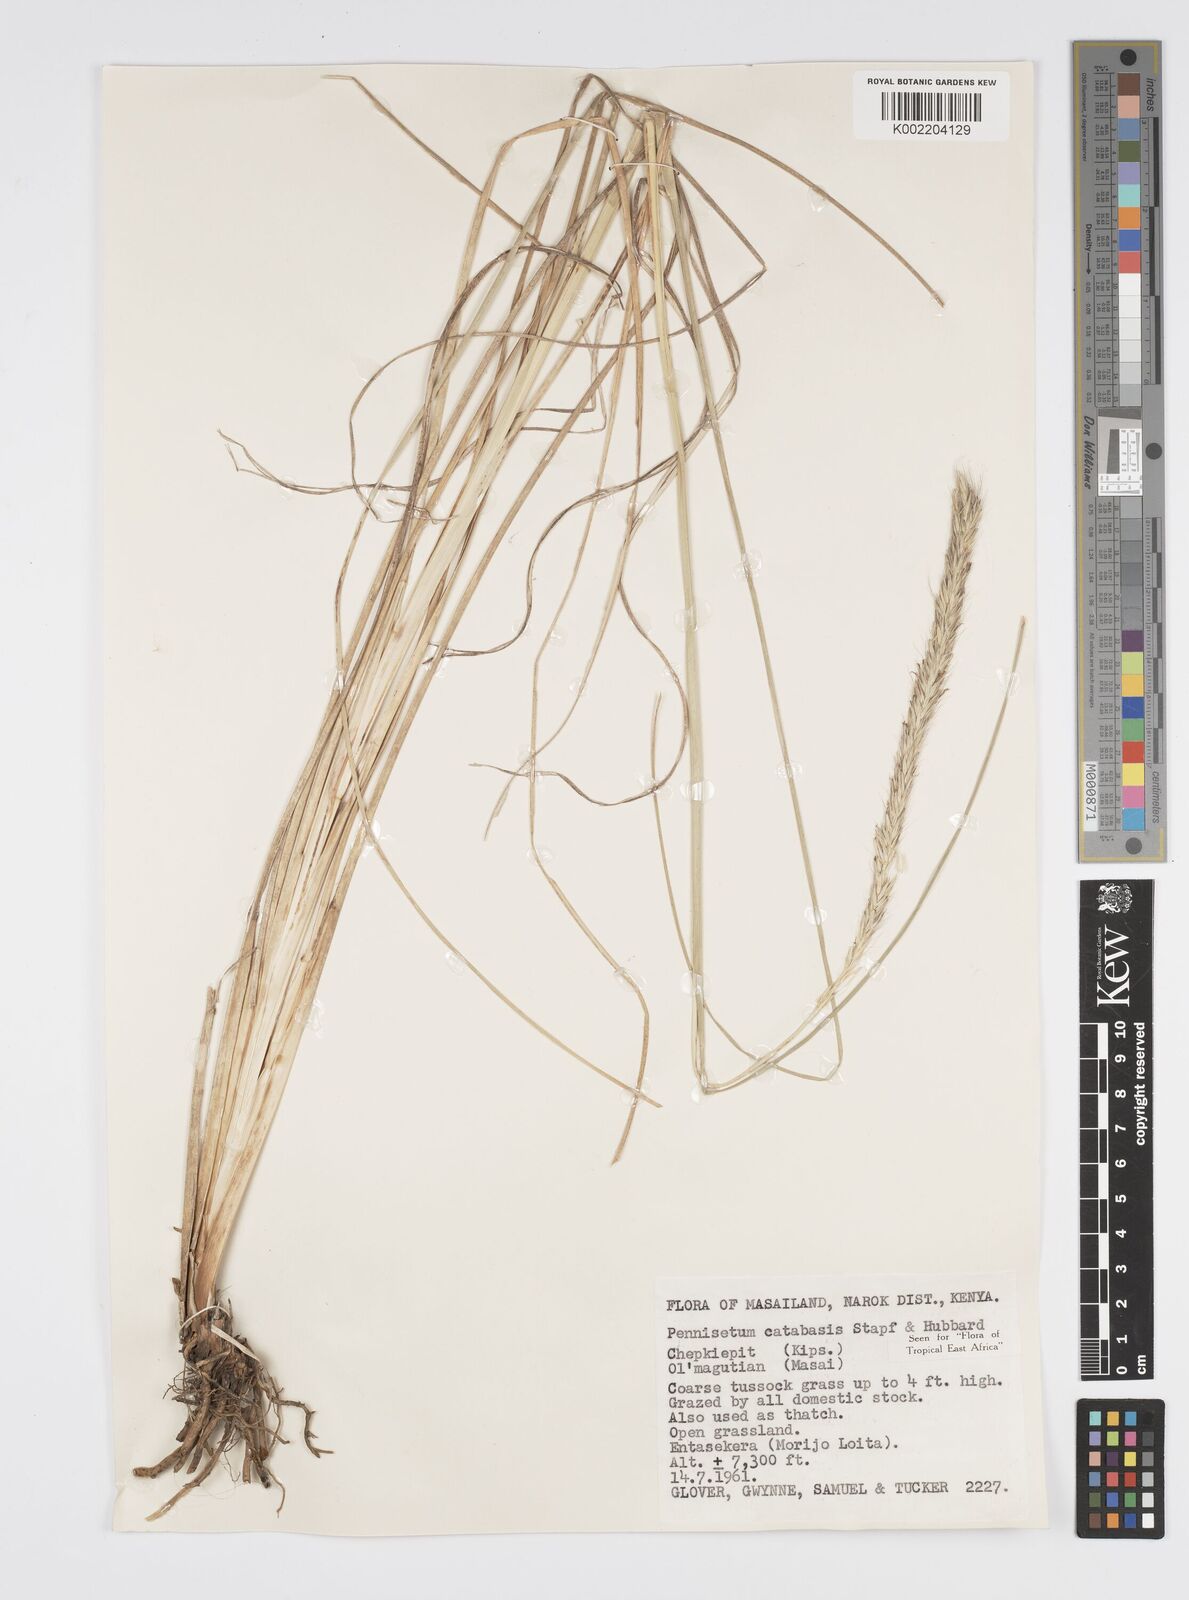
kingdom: Plantae
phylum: Tracheophyta
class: Liliopsida
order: Poales
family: Poaceae
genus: Cenchrus
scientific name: Cenchrus hohenackeri
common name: Moya grass
